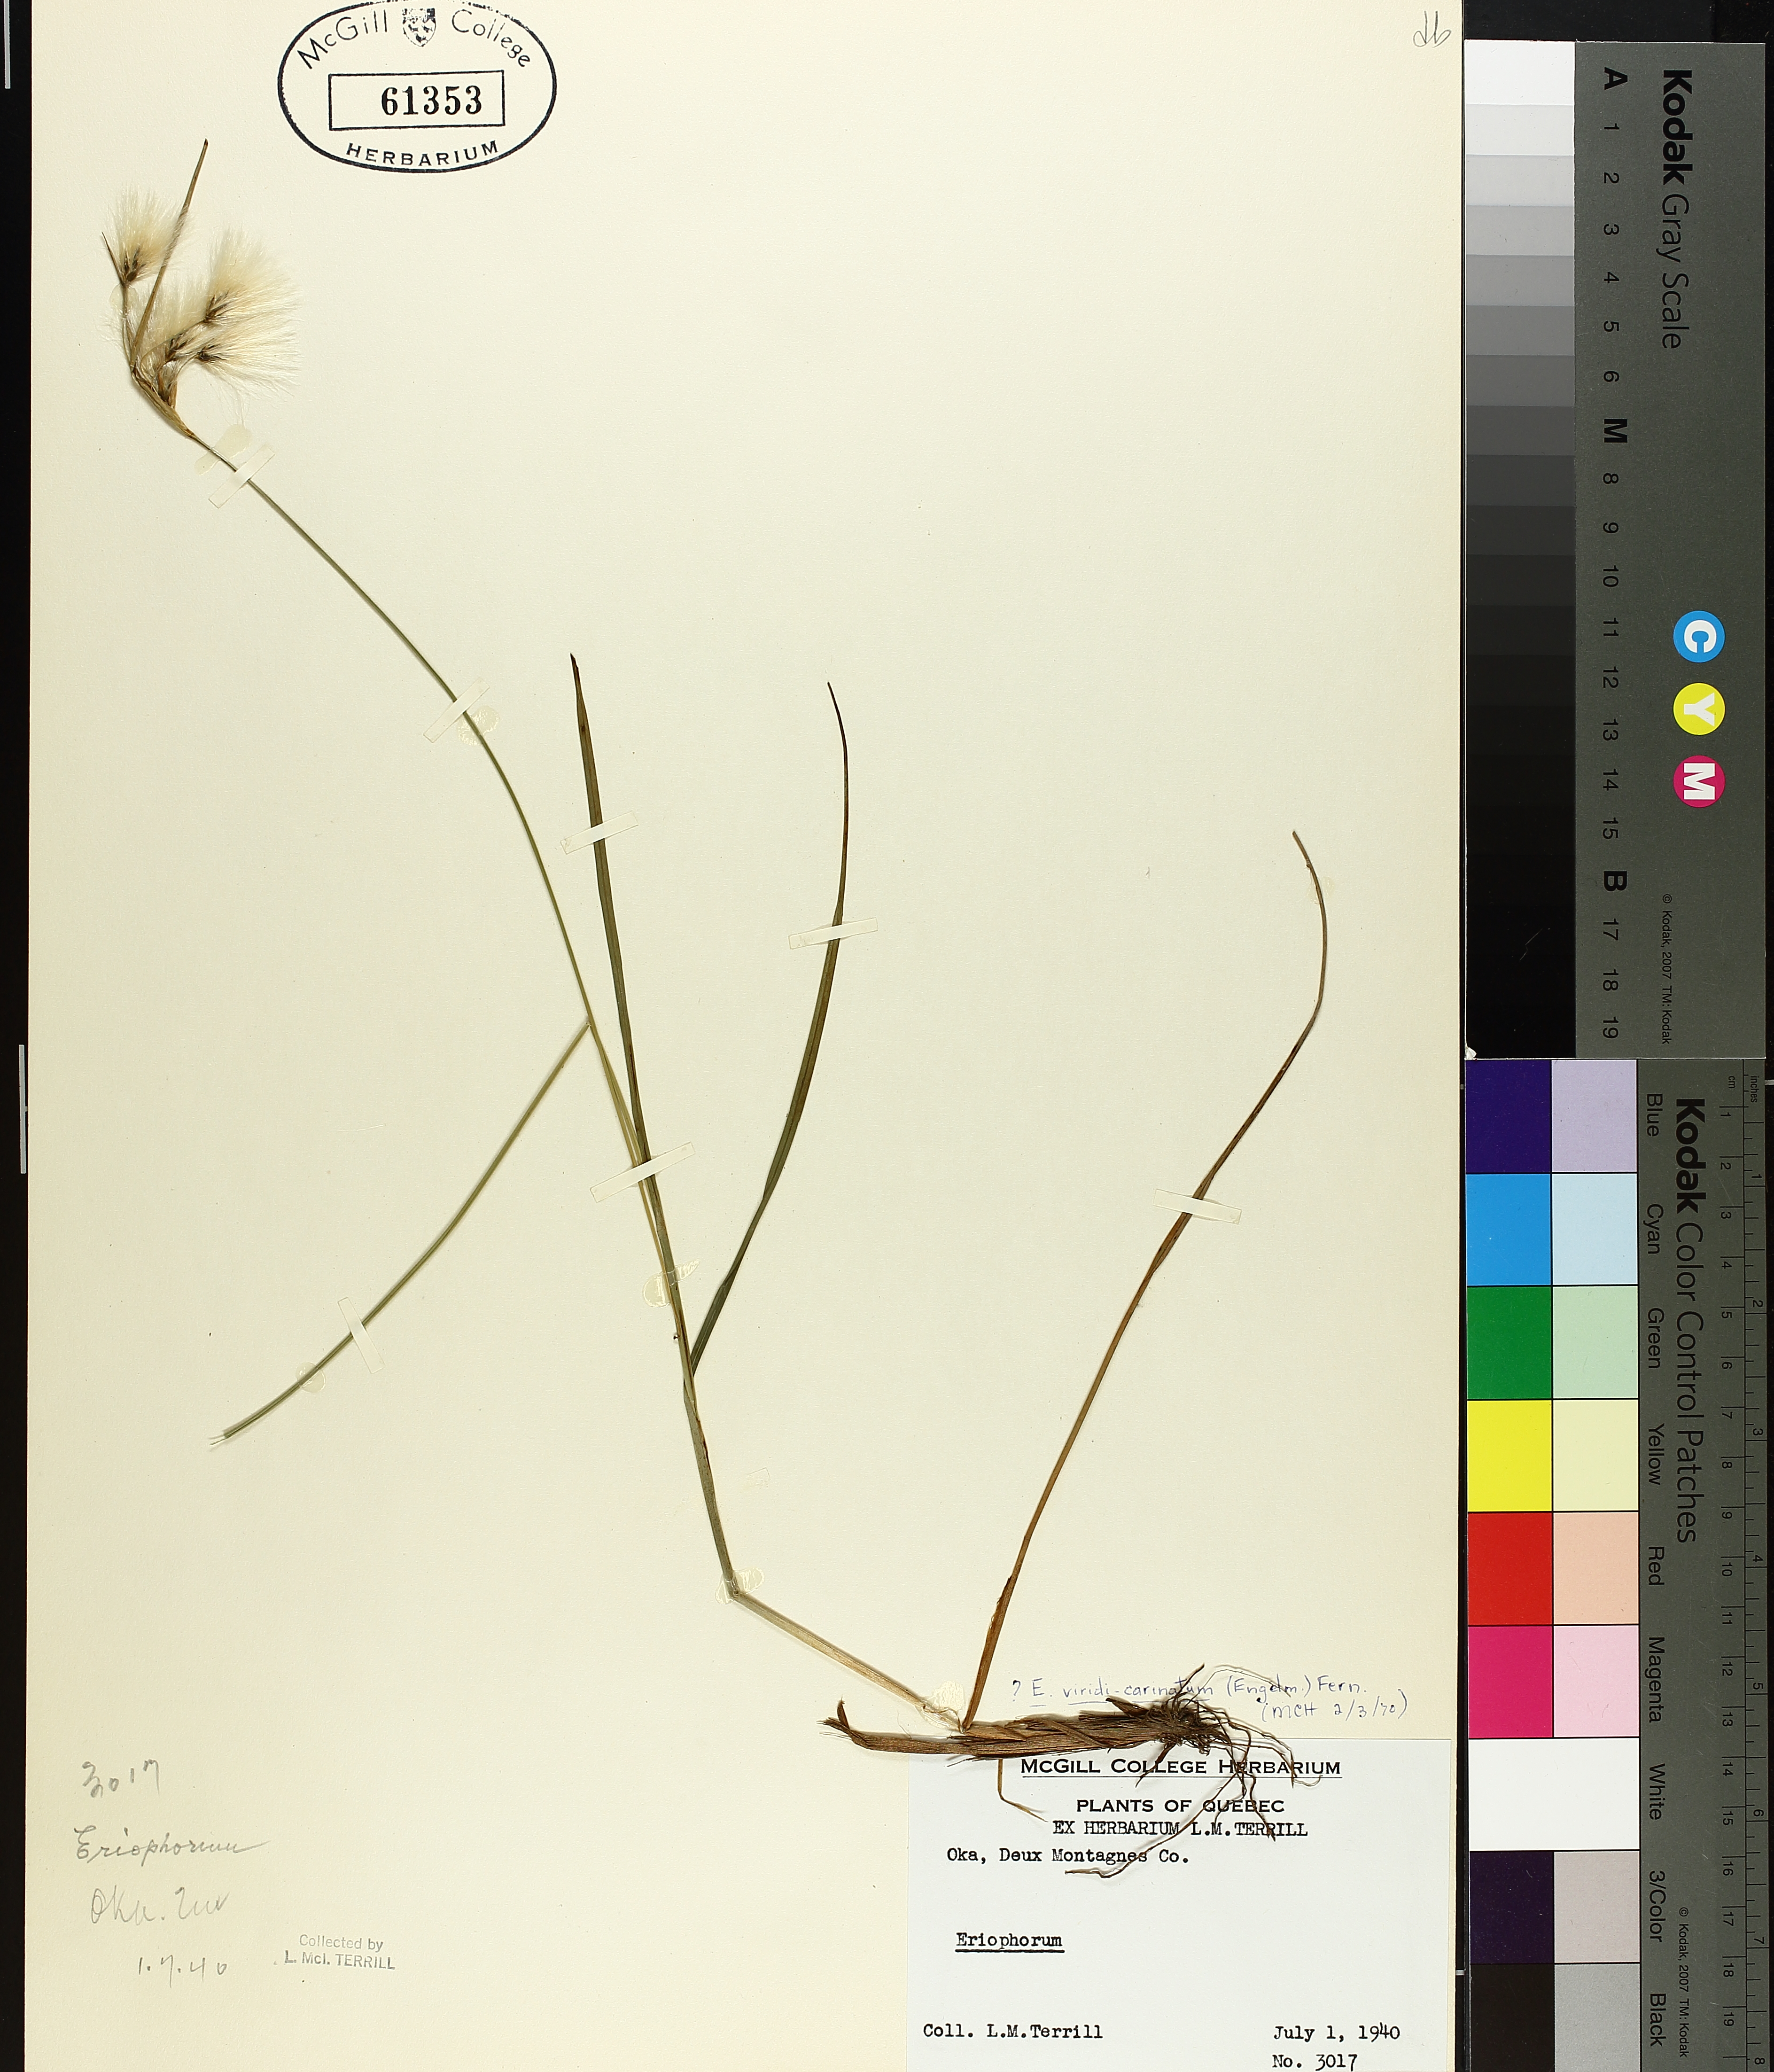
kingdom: Plantae
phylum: Tracheophyta
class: Liliopsida
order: Poales
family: Cyperaceae
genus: Eriophorum
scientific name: Eriophorum viridicarinatum
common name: Green-keeled cottongrass
